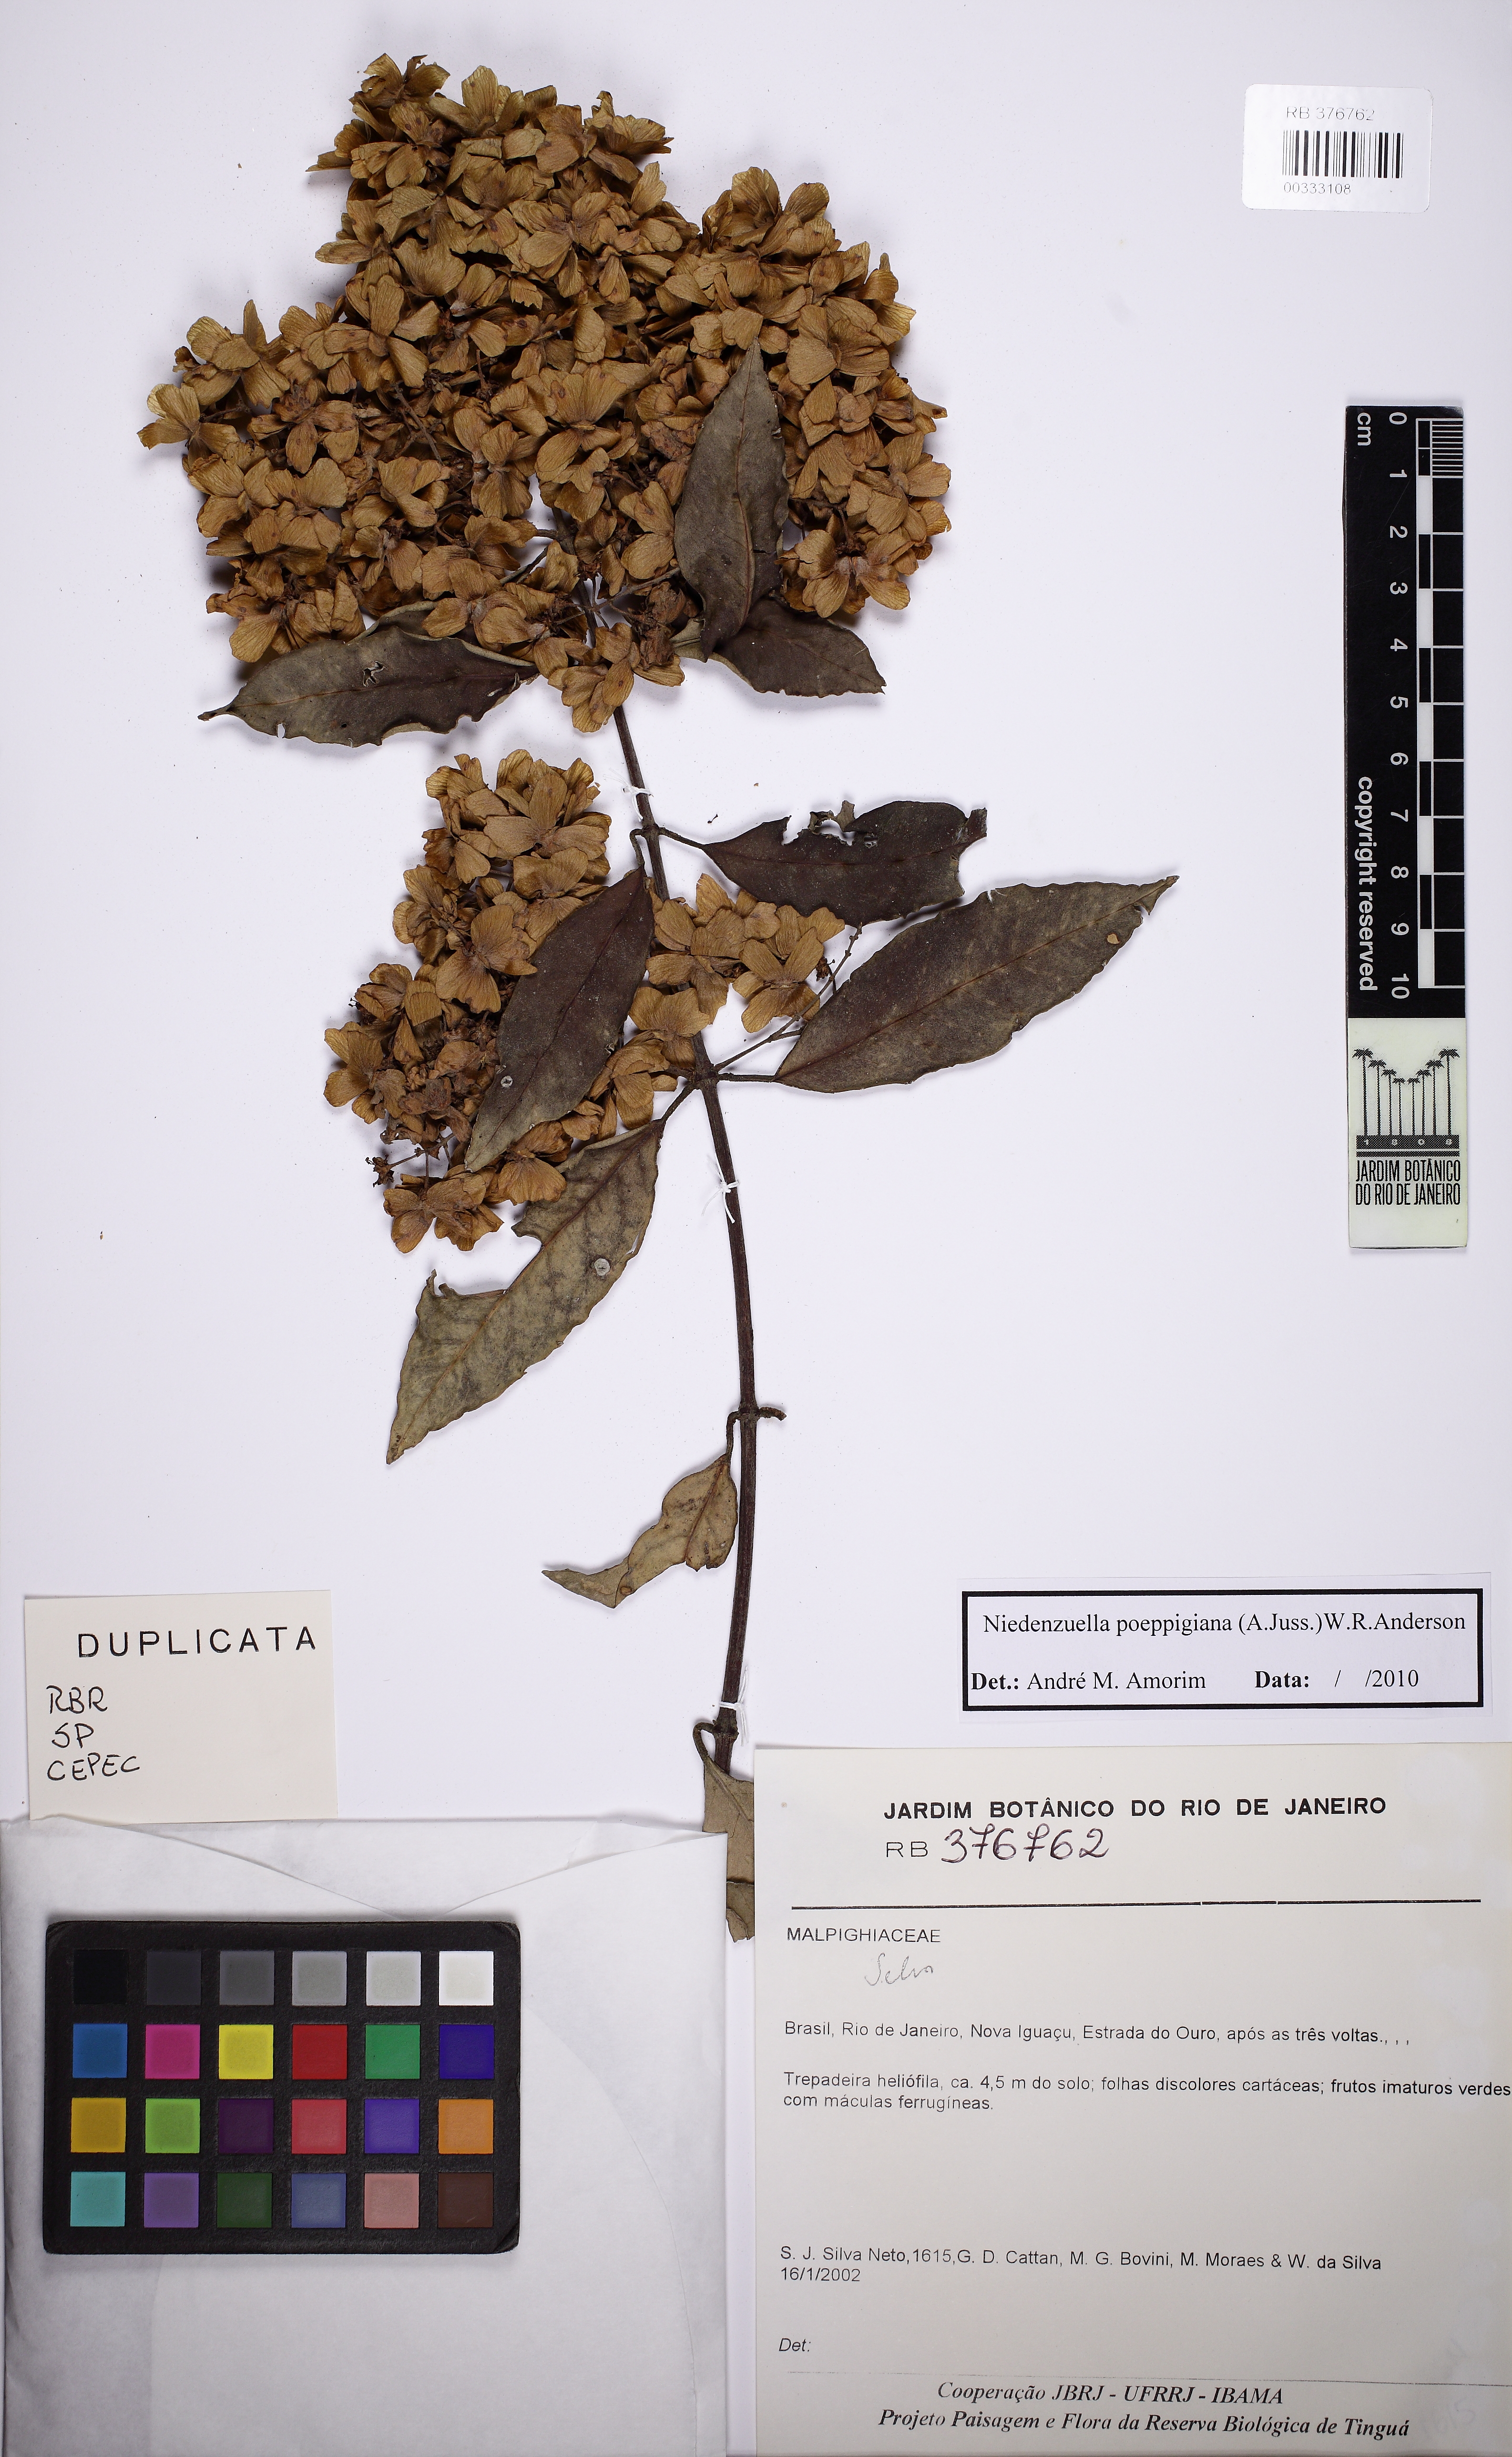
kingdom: Plantae
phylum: Tracheophyta
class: Magnoliopsida
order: Malpighiales
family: Malpighiaceae
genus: Niedenzuella
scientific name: Niedenzuella poeppigiana
